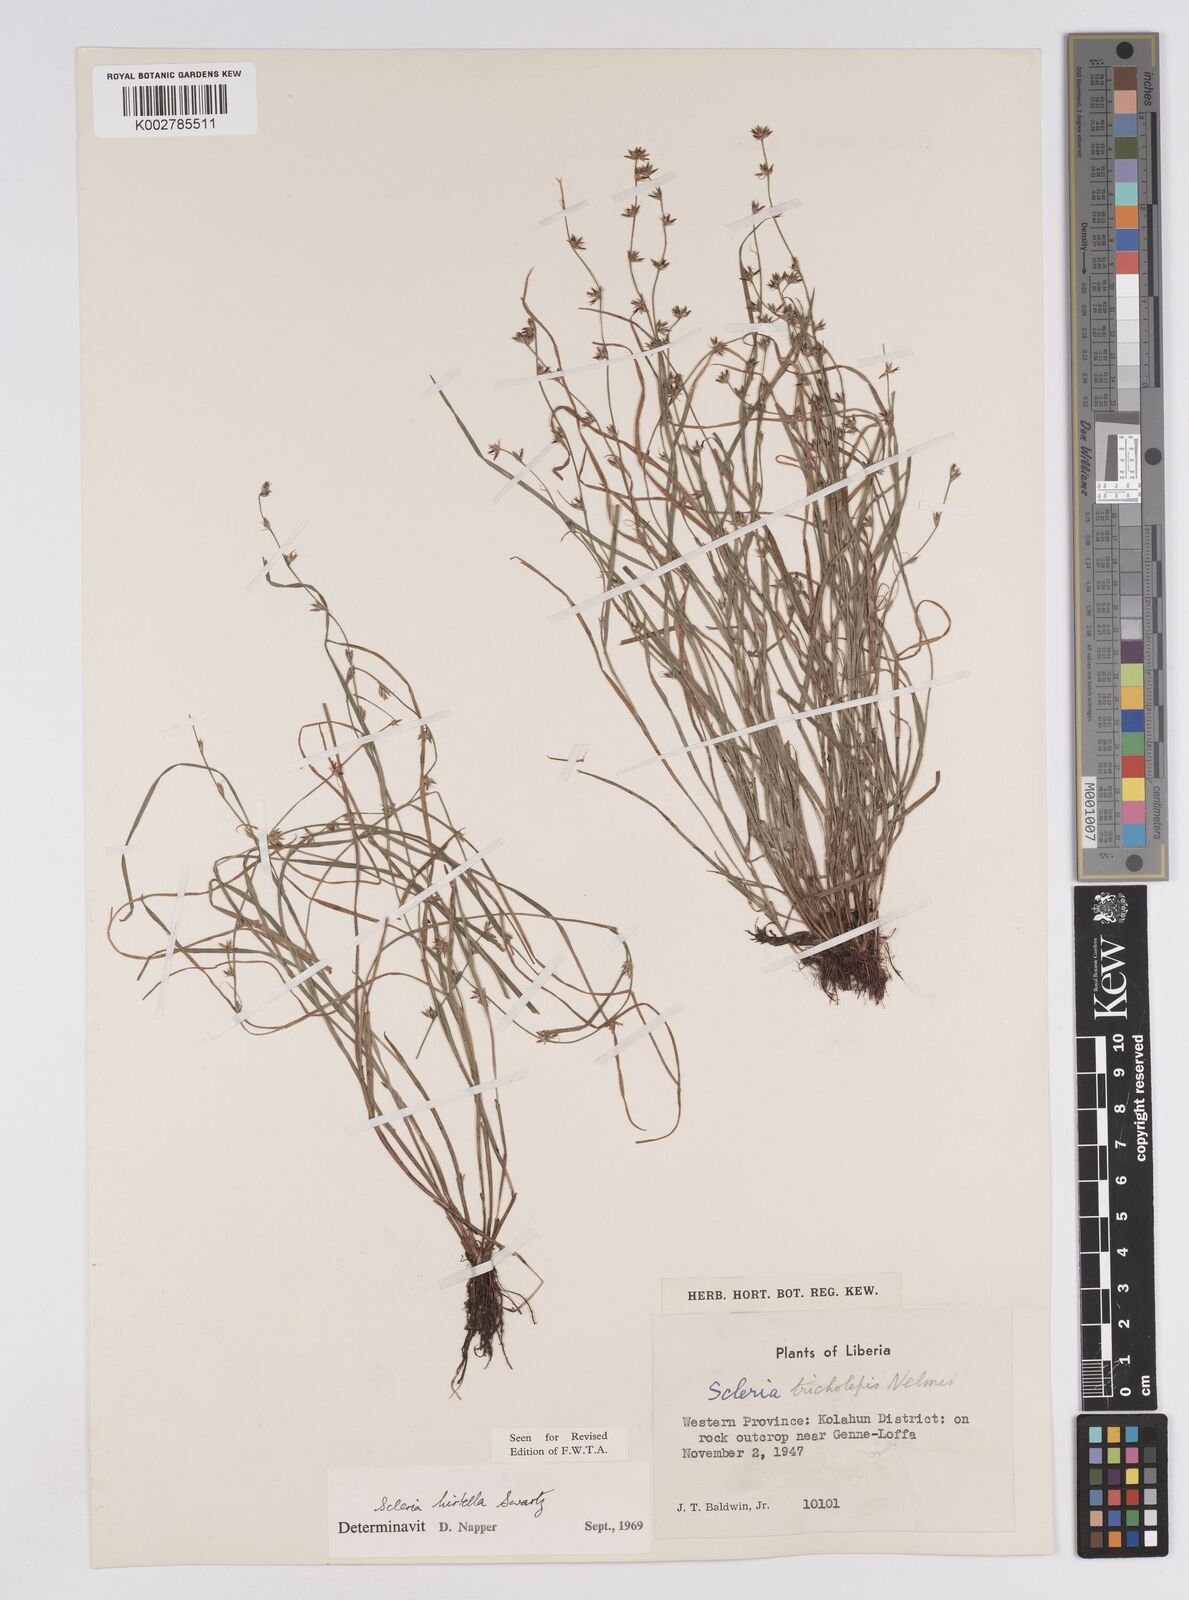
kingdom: Plantae
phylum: Tracheophyta
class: Liliopsida
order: Poales
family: Cyperaceae
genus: Scleria
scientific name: Scleria tricholepis
